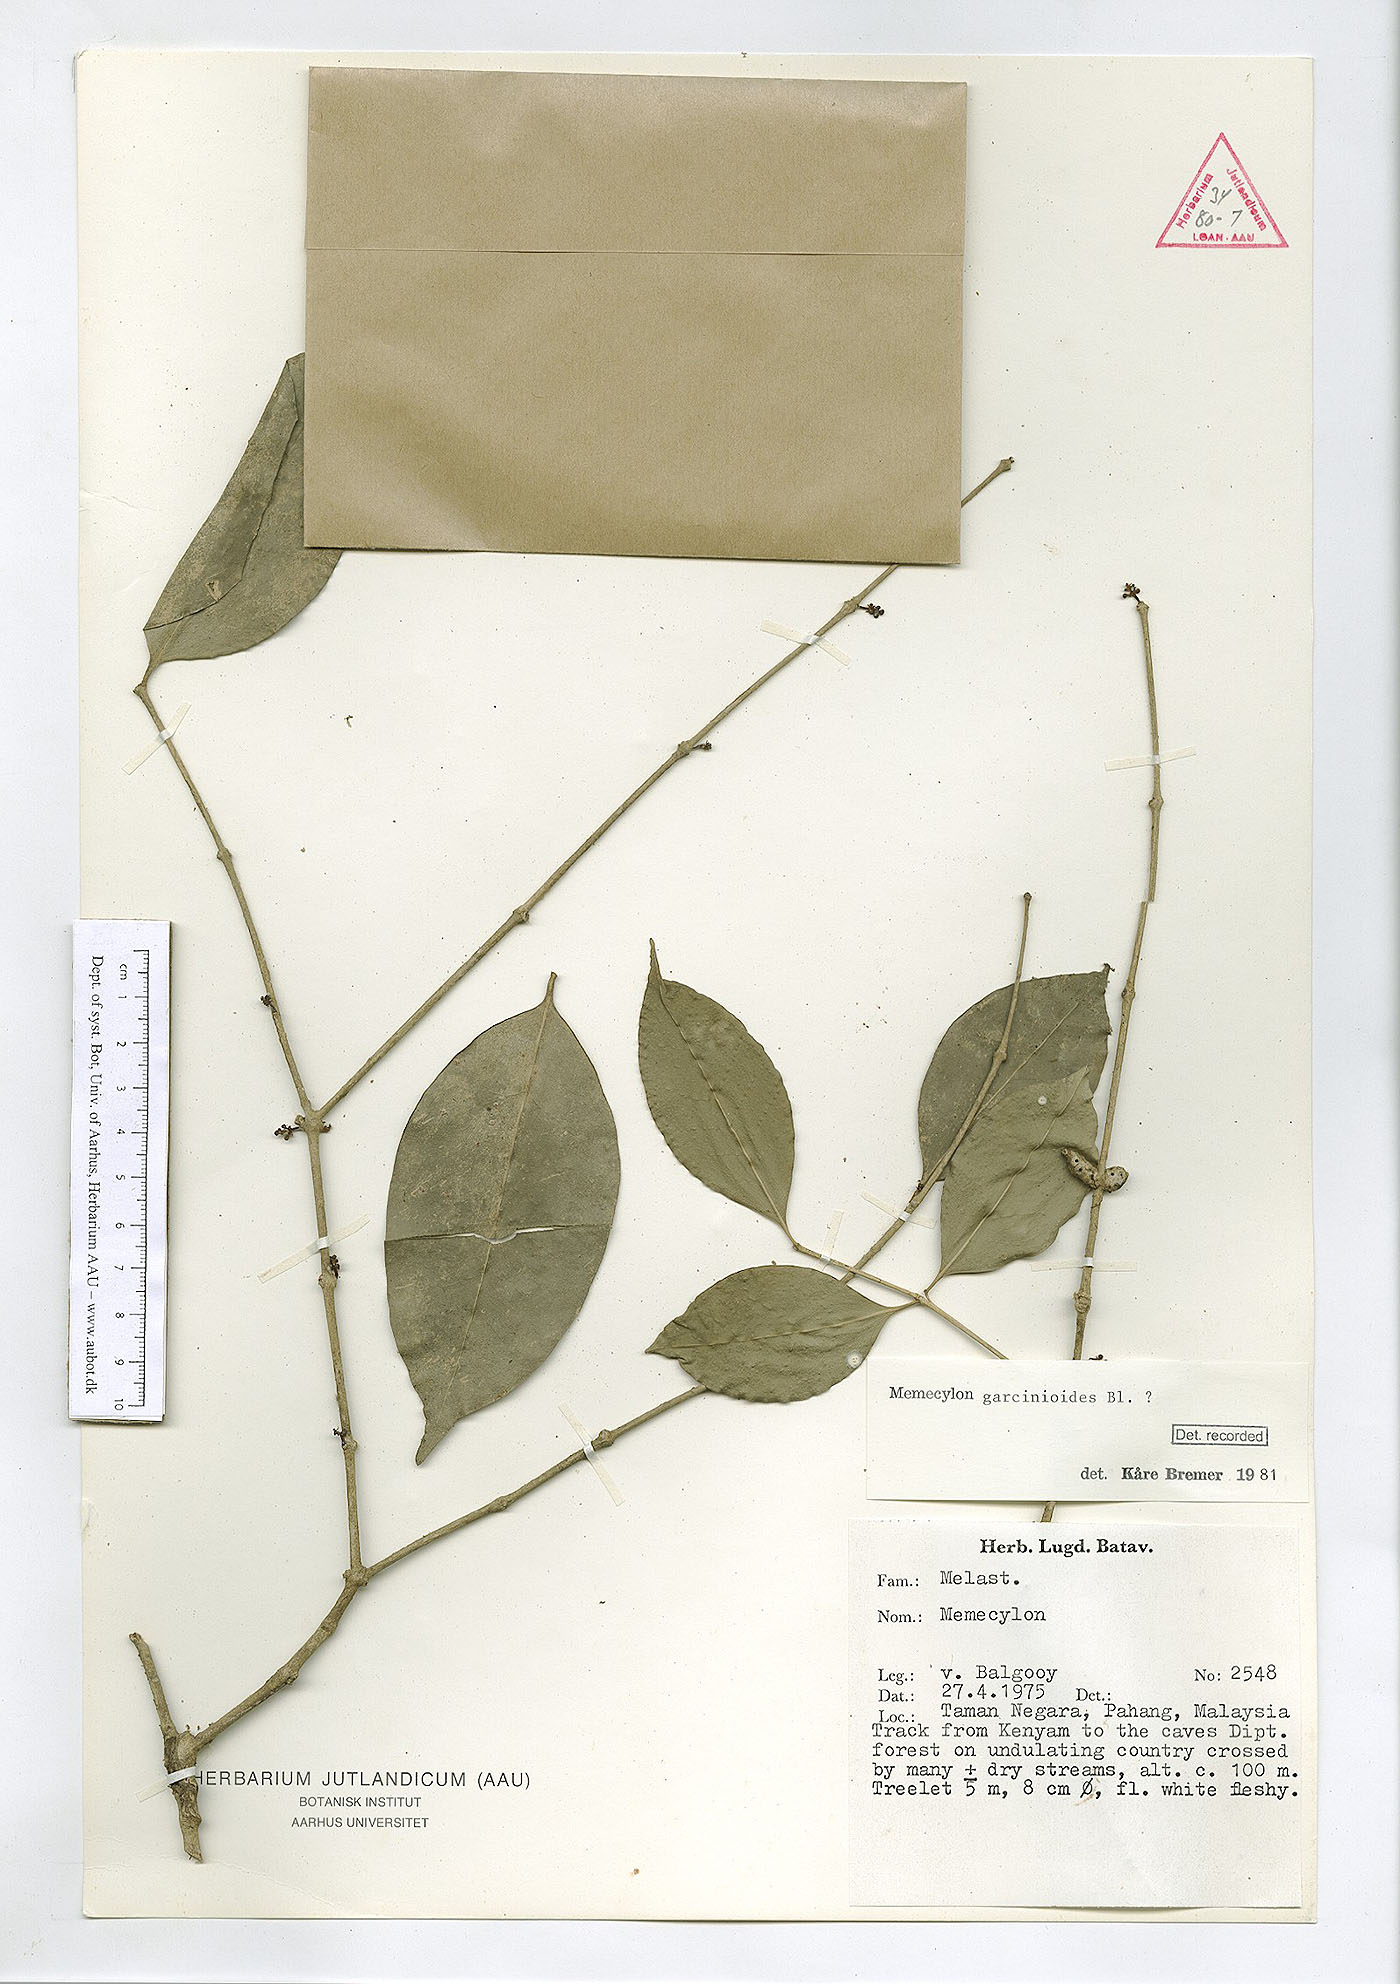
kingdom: Plantae
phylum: Tracheophyta
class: Magnoliopsida
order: Myrtales
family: Melastomataceae
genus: Memecylon
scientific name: Memecylon garcinioides
